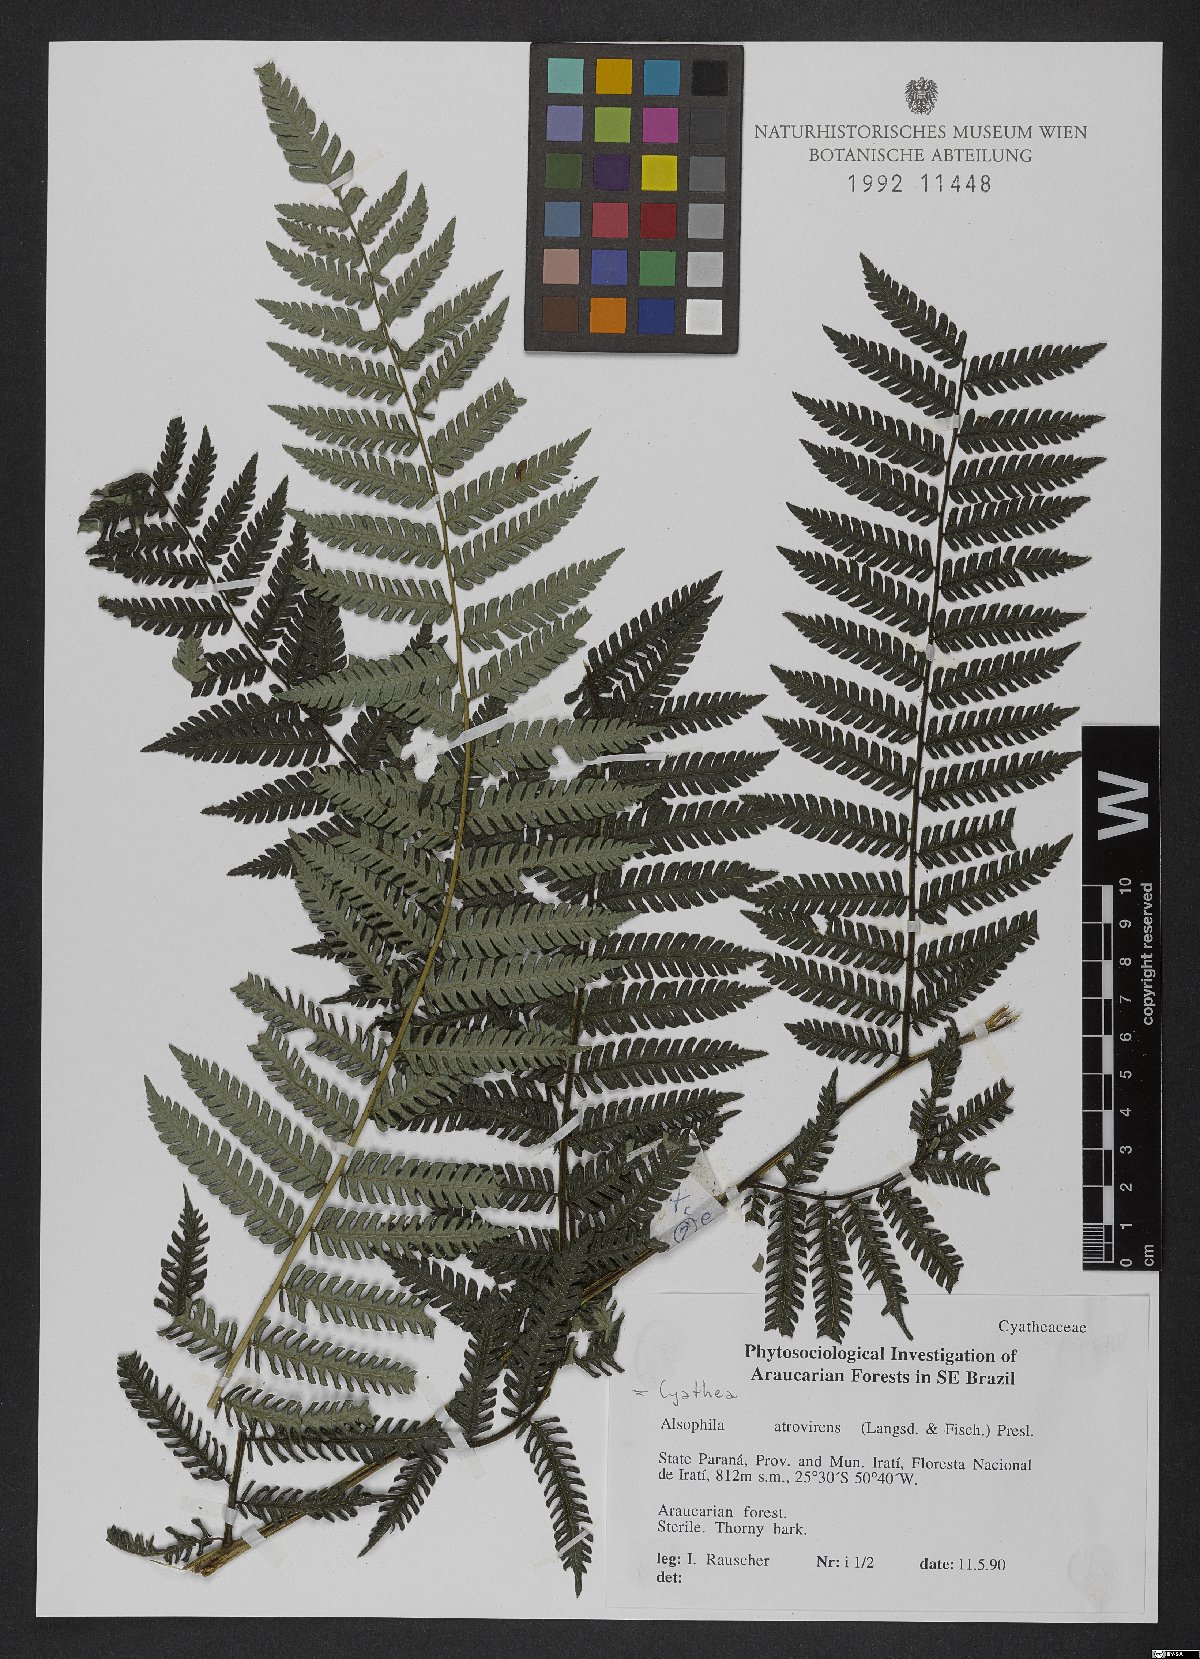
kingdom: Plantae
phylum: Tracheophyta
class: Polypodiopsida
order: Cyatheales
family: Cyatheaceae
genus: Cyathea
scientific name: Cyathea atrovirens
